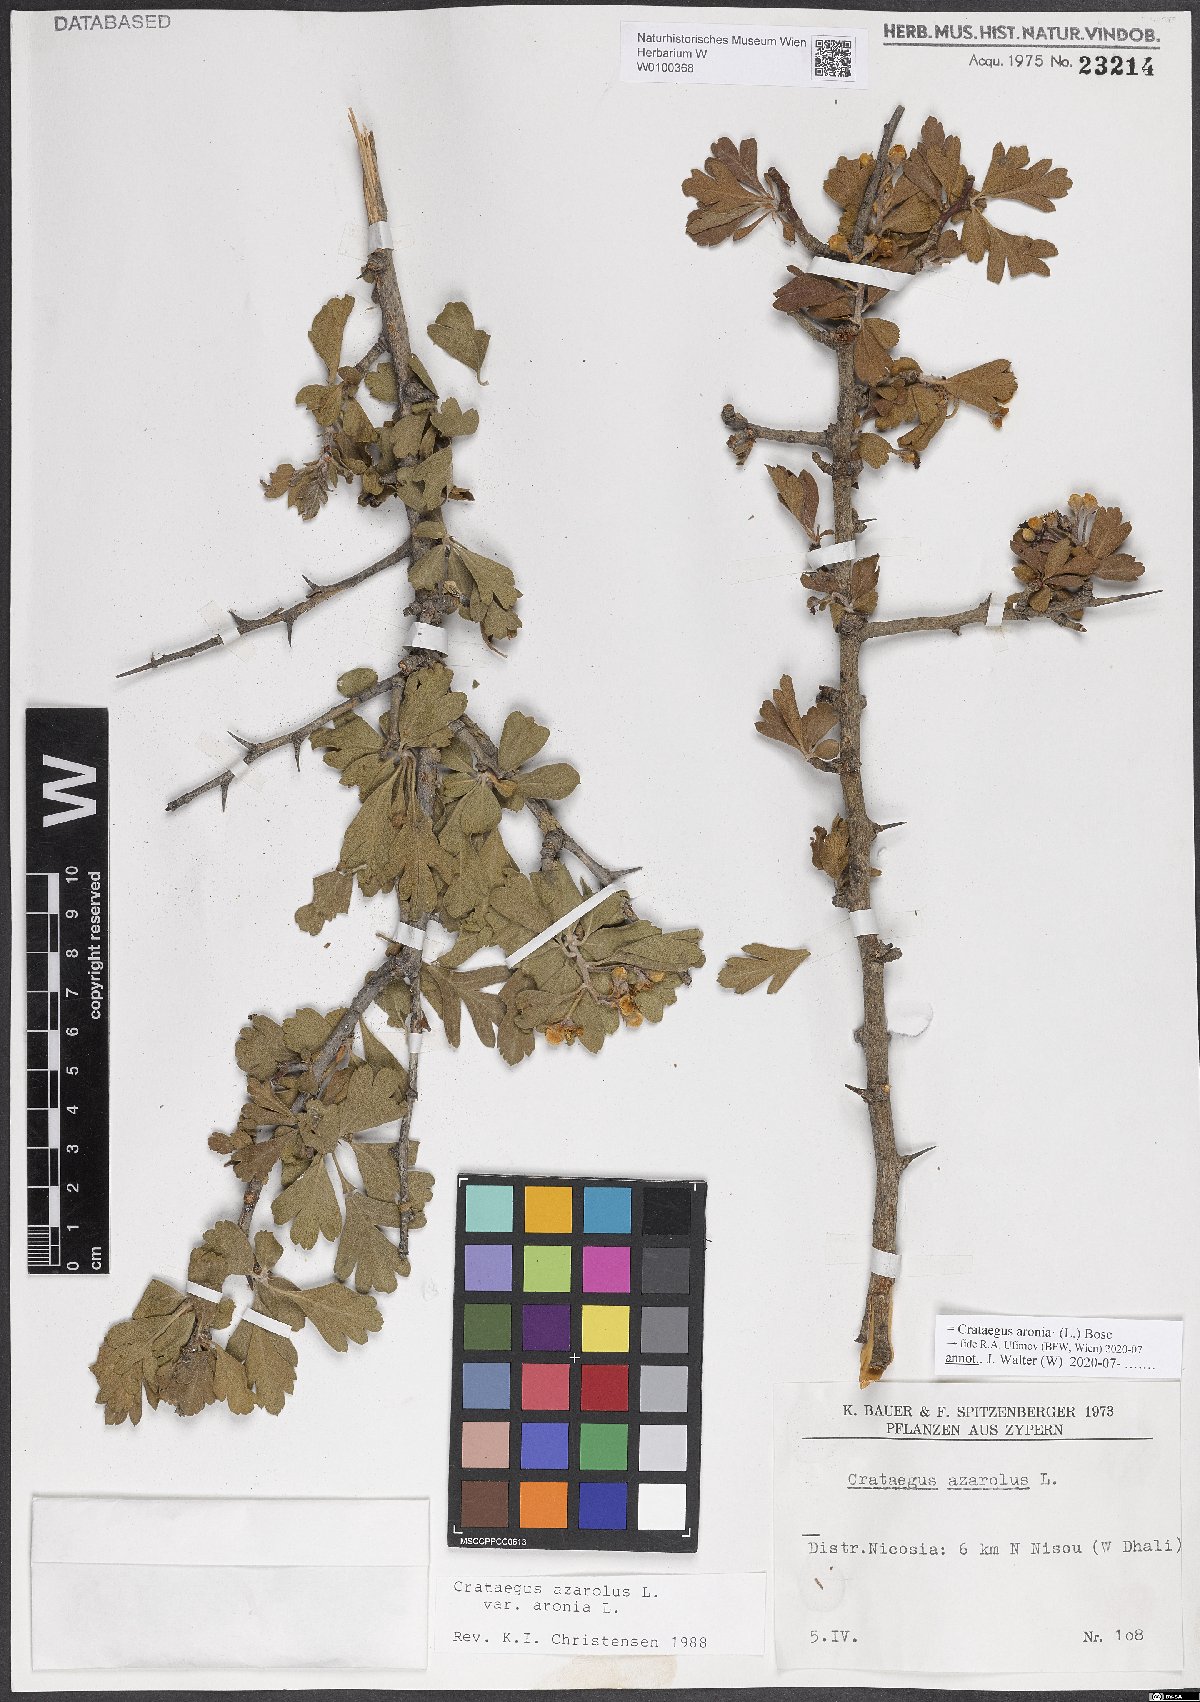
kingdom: Plantae
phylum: Tracheophyta
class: Magnoliopsida
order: Rosales
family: Rosaceae
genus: Crataegus
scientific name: Crataegus azarolus
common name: Azarole
